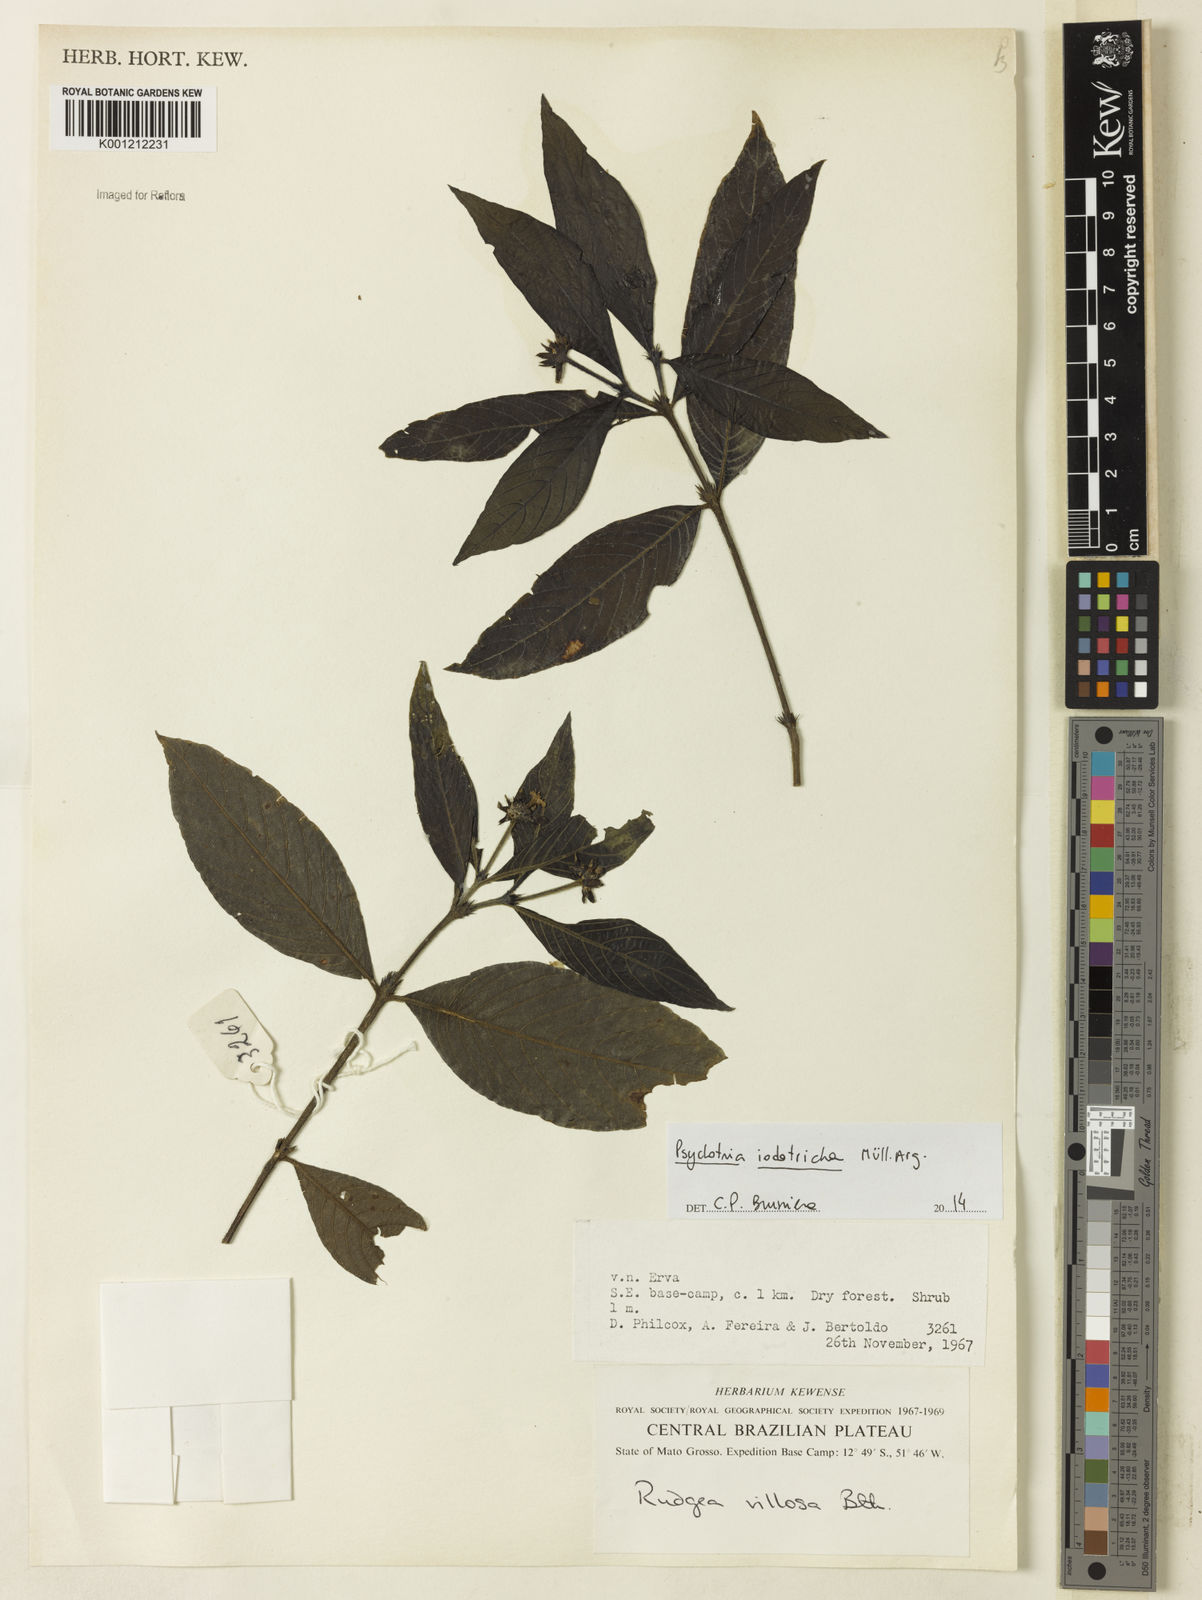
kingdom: Plantae
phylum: Tracheophyta
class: Magnoliopsida
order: Gentianales
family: Rubiaceae
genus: Psychotria
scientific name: Psychotria
